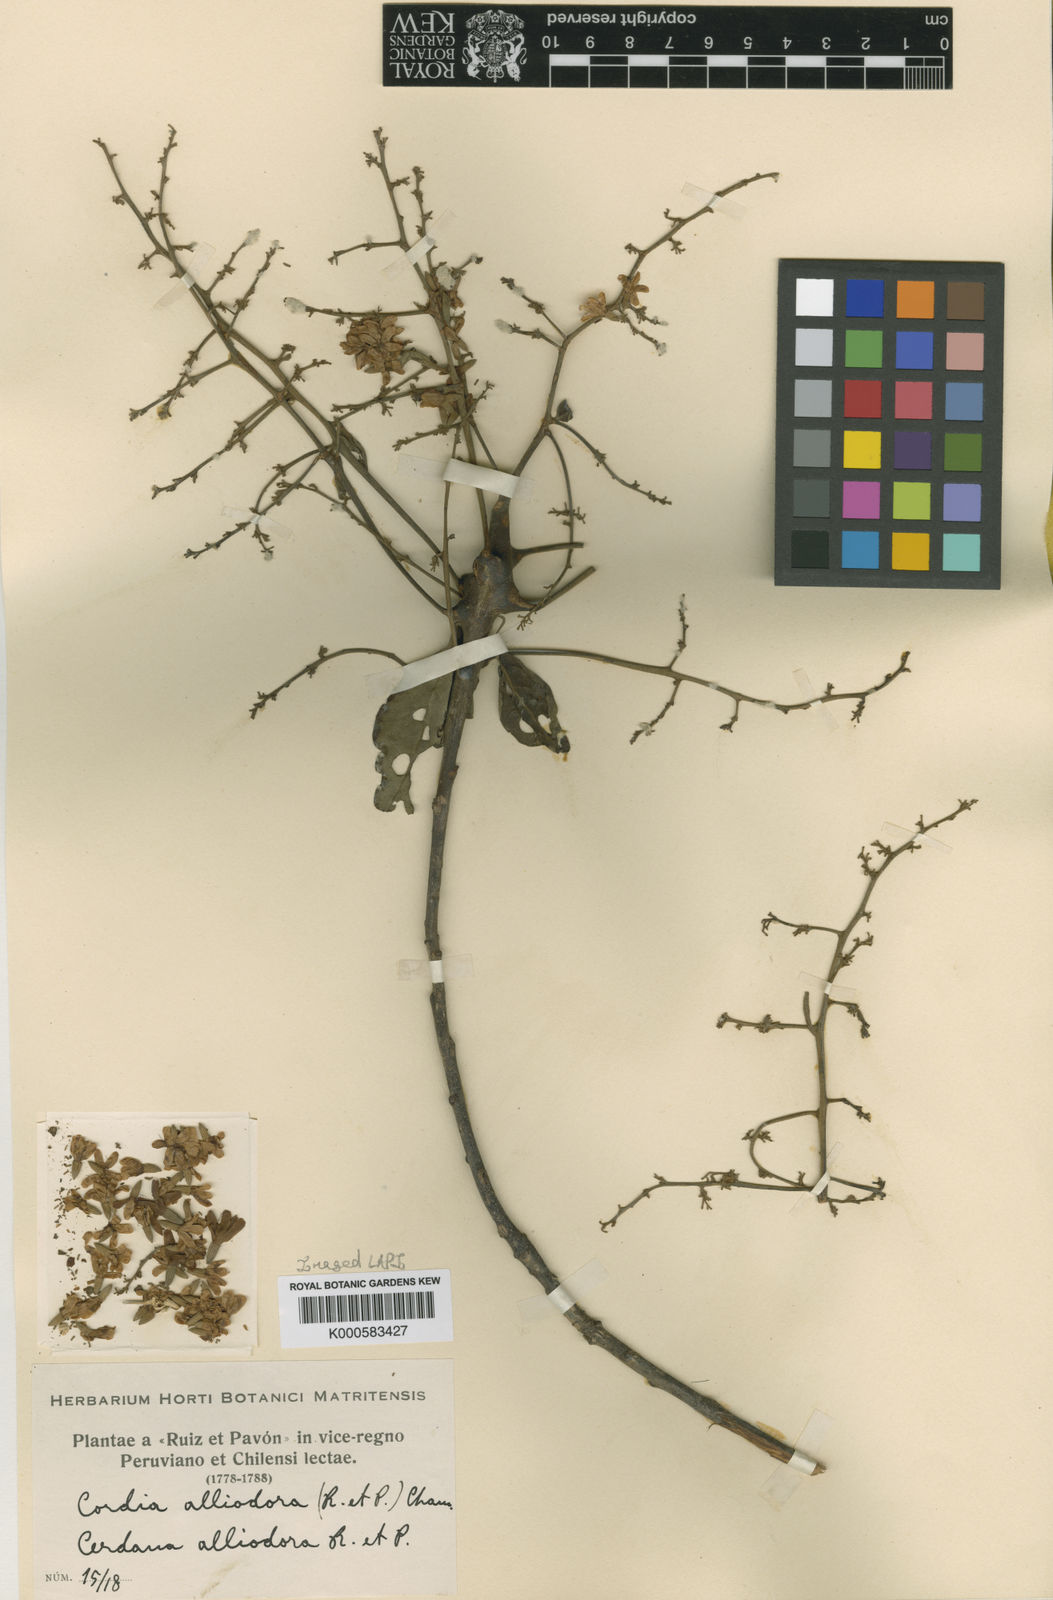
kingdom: Plantae
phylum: Tracheophyta
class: Magnoliopsida
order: Boraginales
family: Cordiaceae
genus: Cordia
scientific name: Cordia
